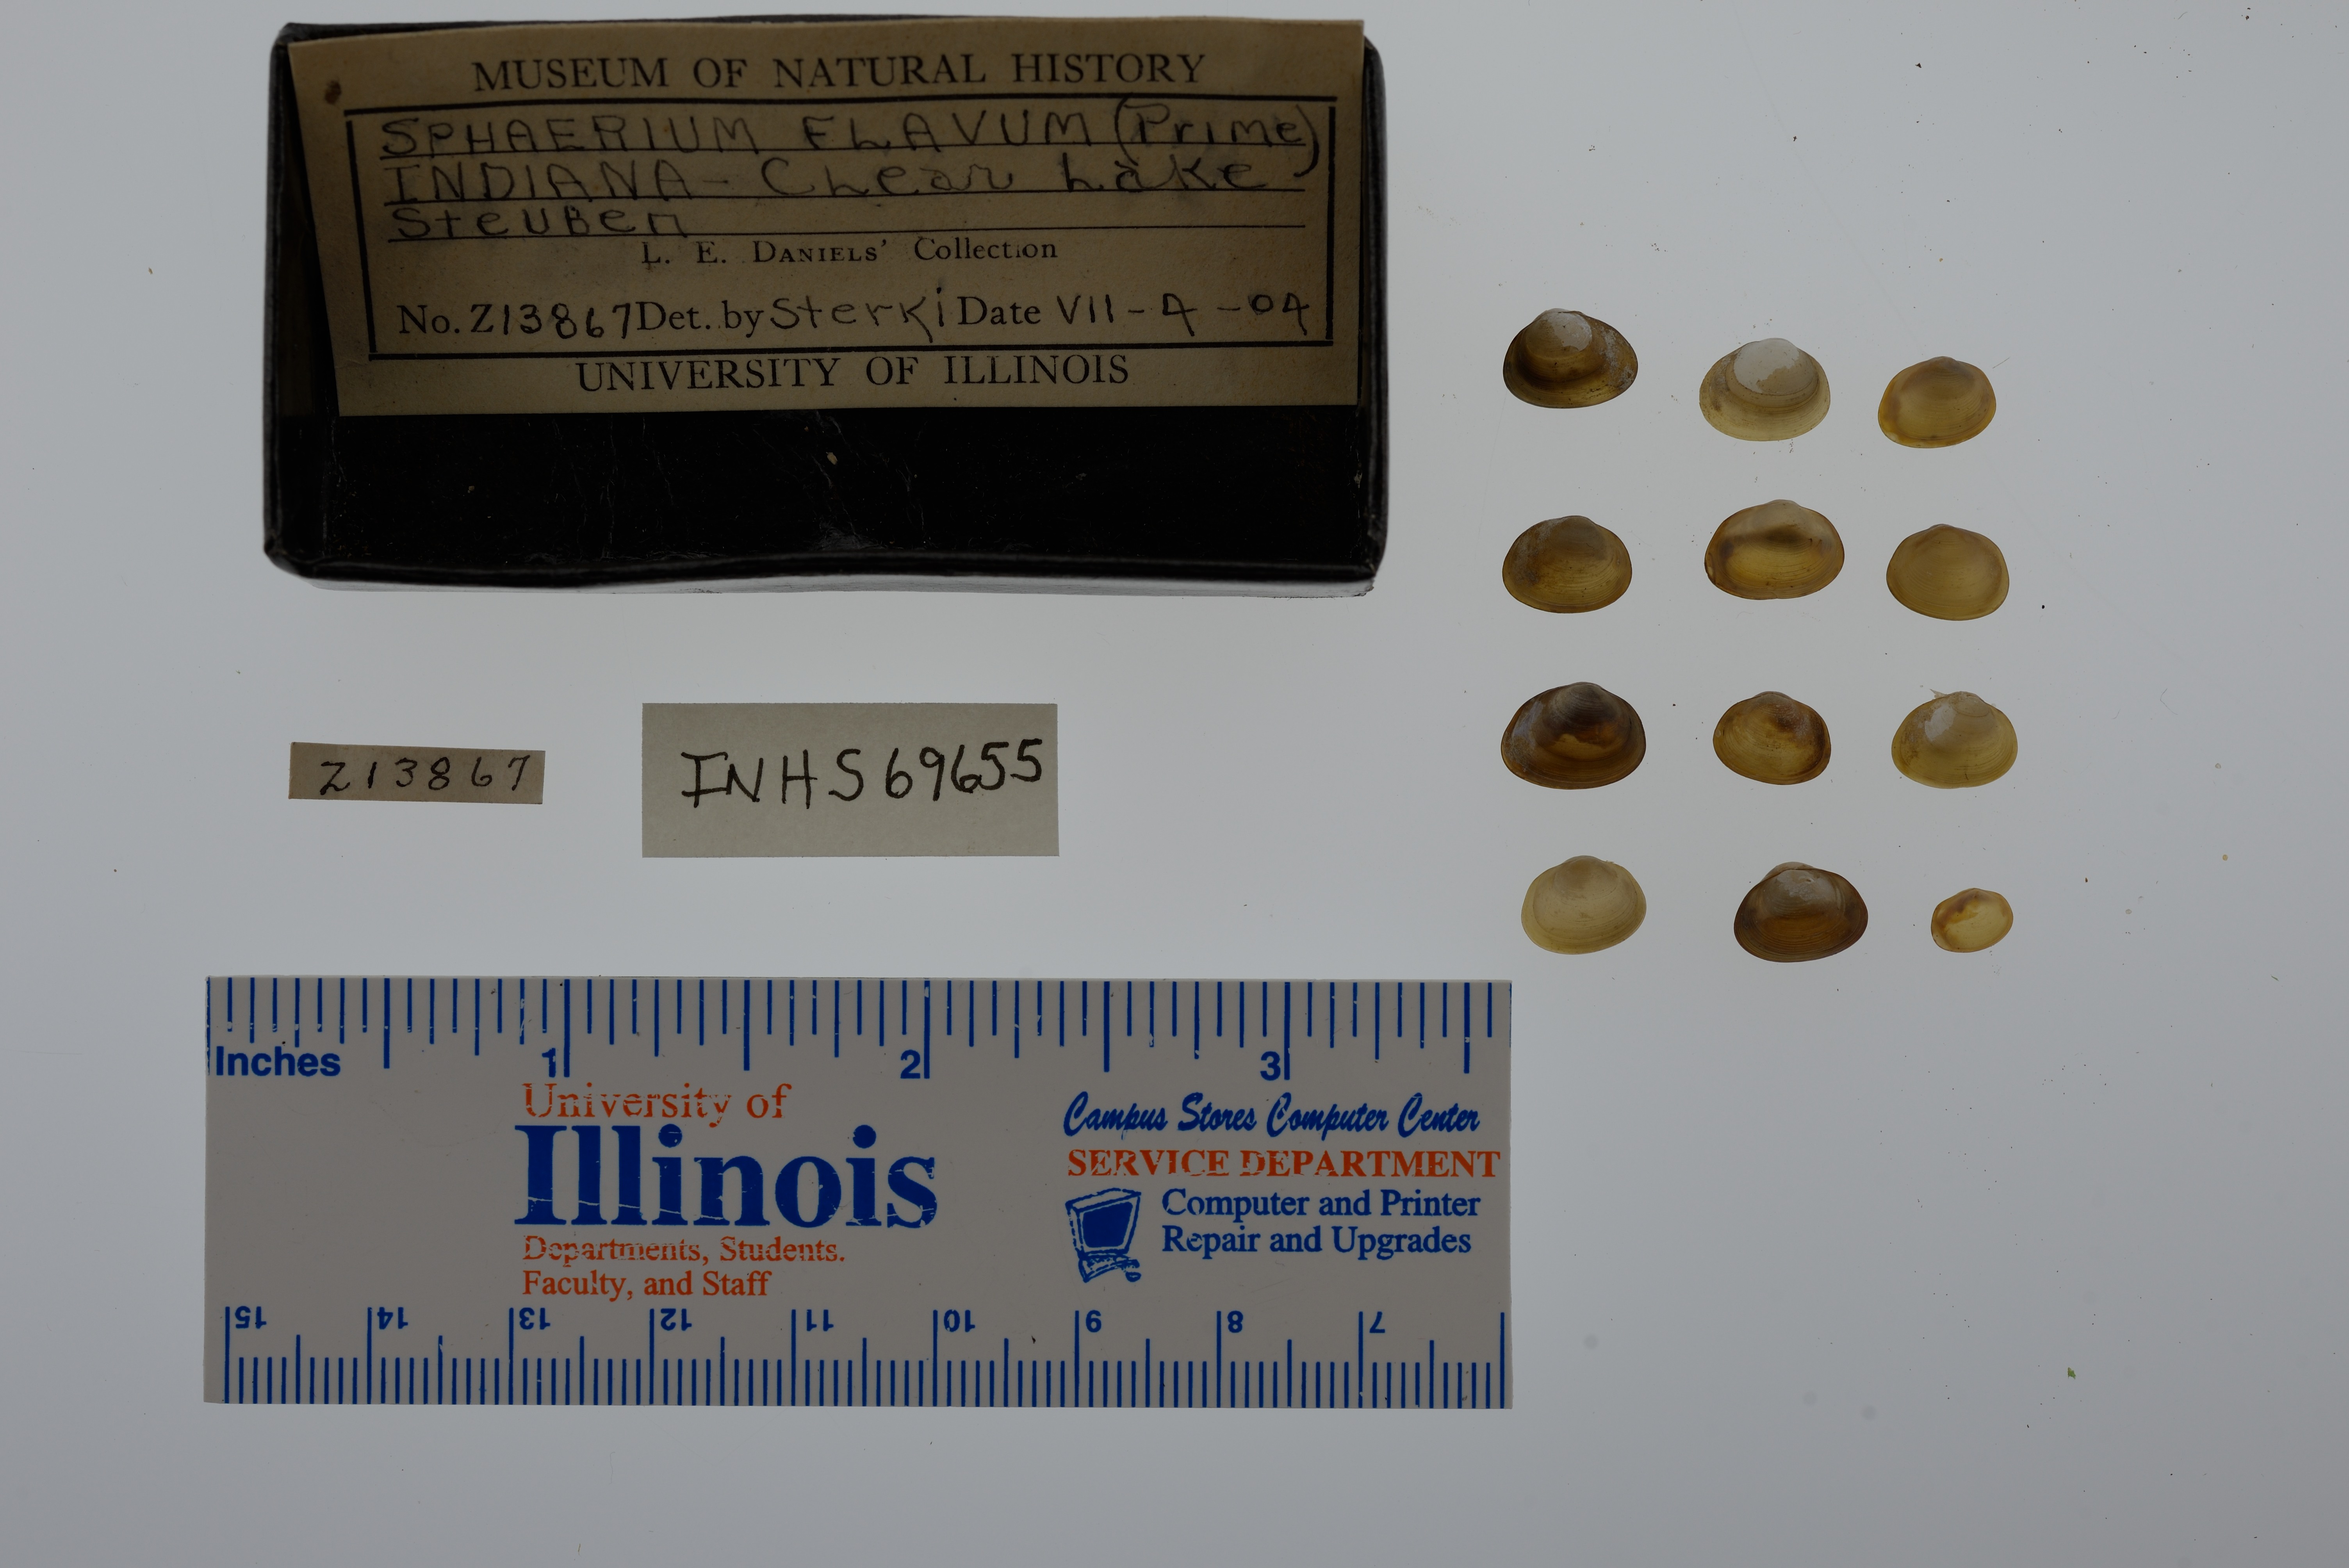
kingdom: Animalia
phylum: Mollusca
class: Bivalvia
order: Sphaeriida
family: Sphaeriidae
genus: Sphaerium
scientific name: Sphaerium striatinum
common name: Striated fingernailclam
